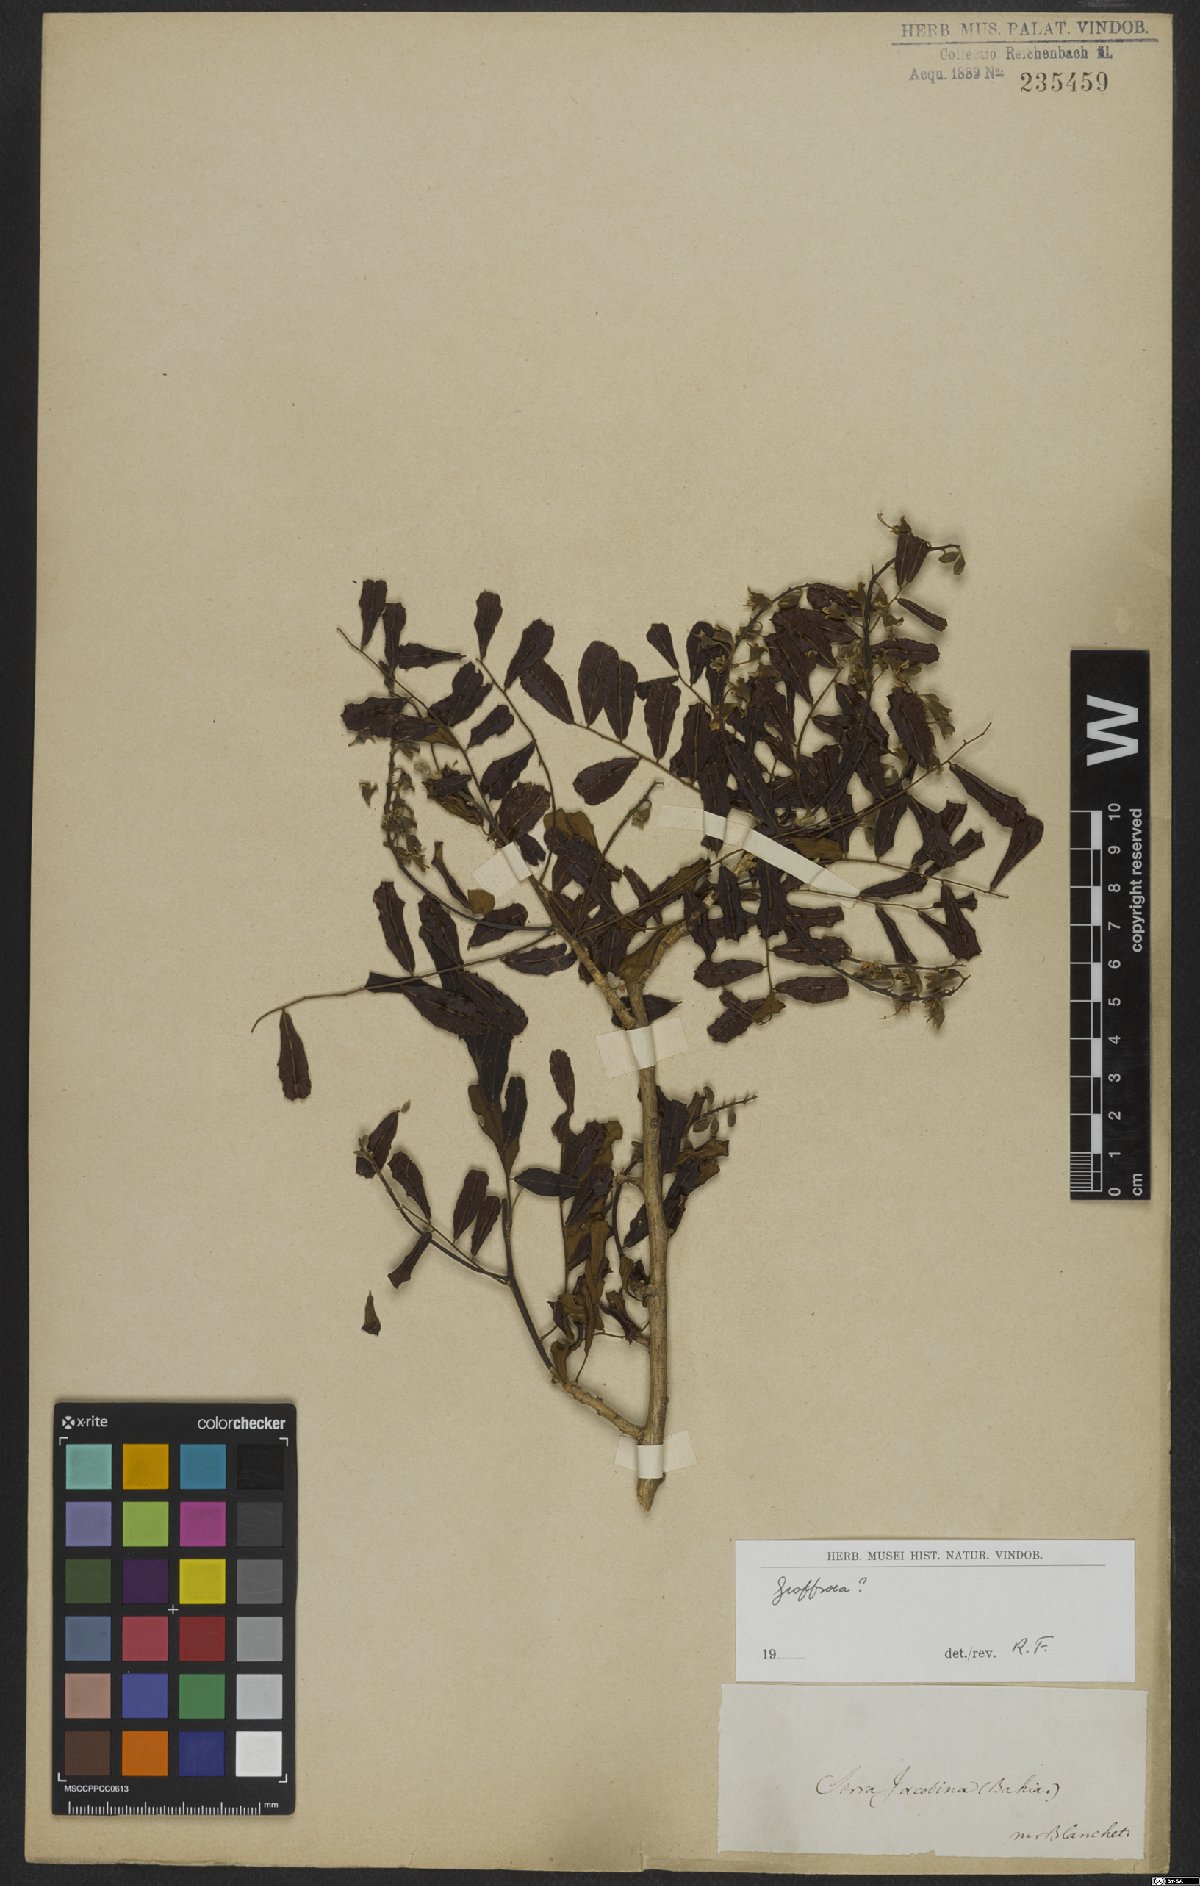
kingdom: Plantae
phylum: Tracheophyta
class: Magnoliopsida
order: Fabales
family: Fabaceae
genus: Geoffroea
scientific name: Geoffroea
